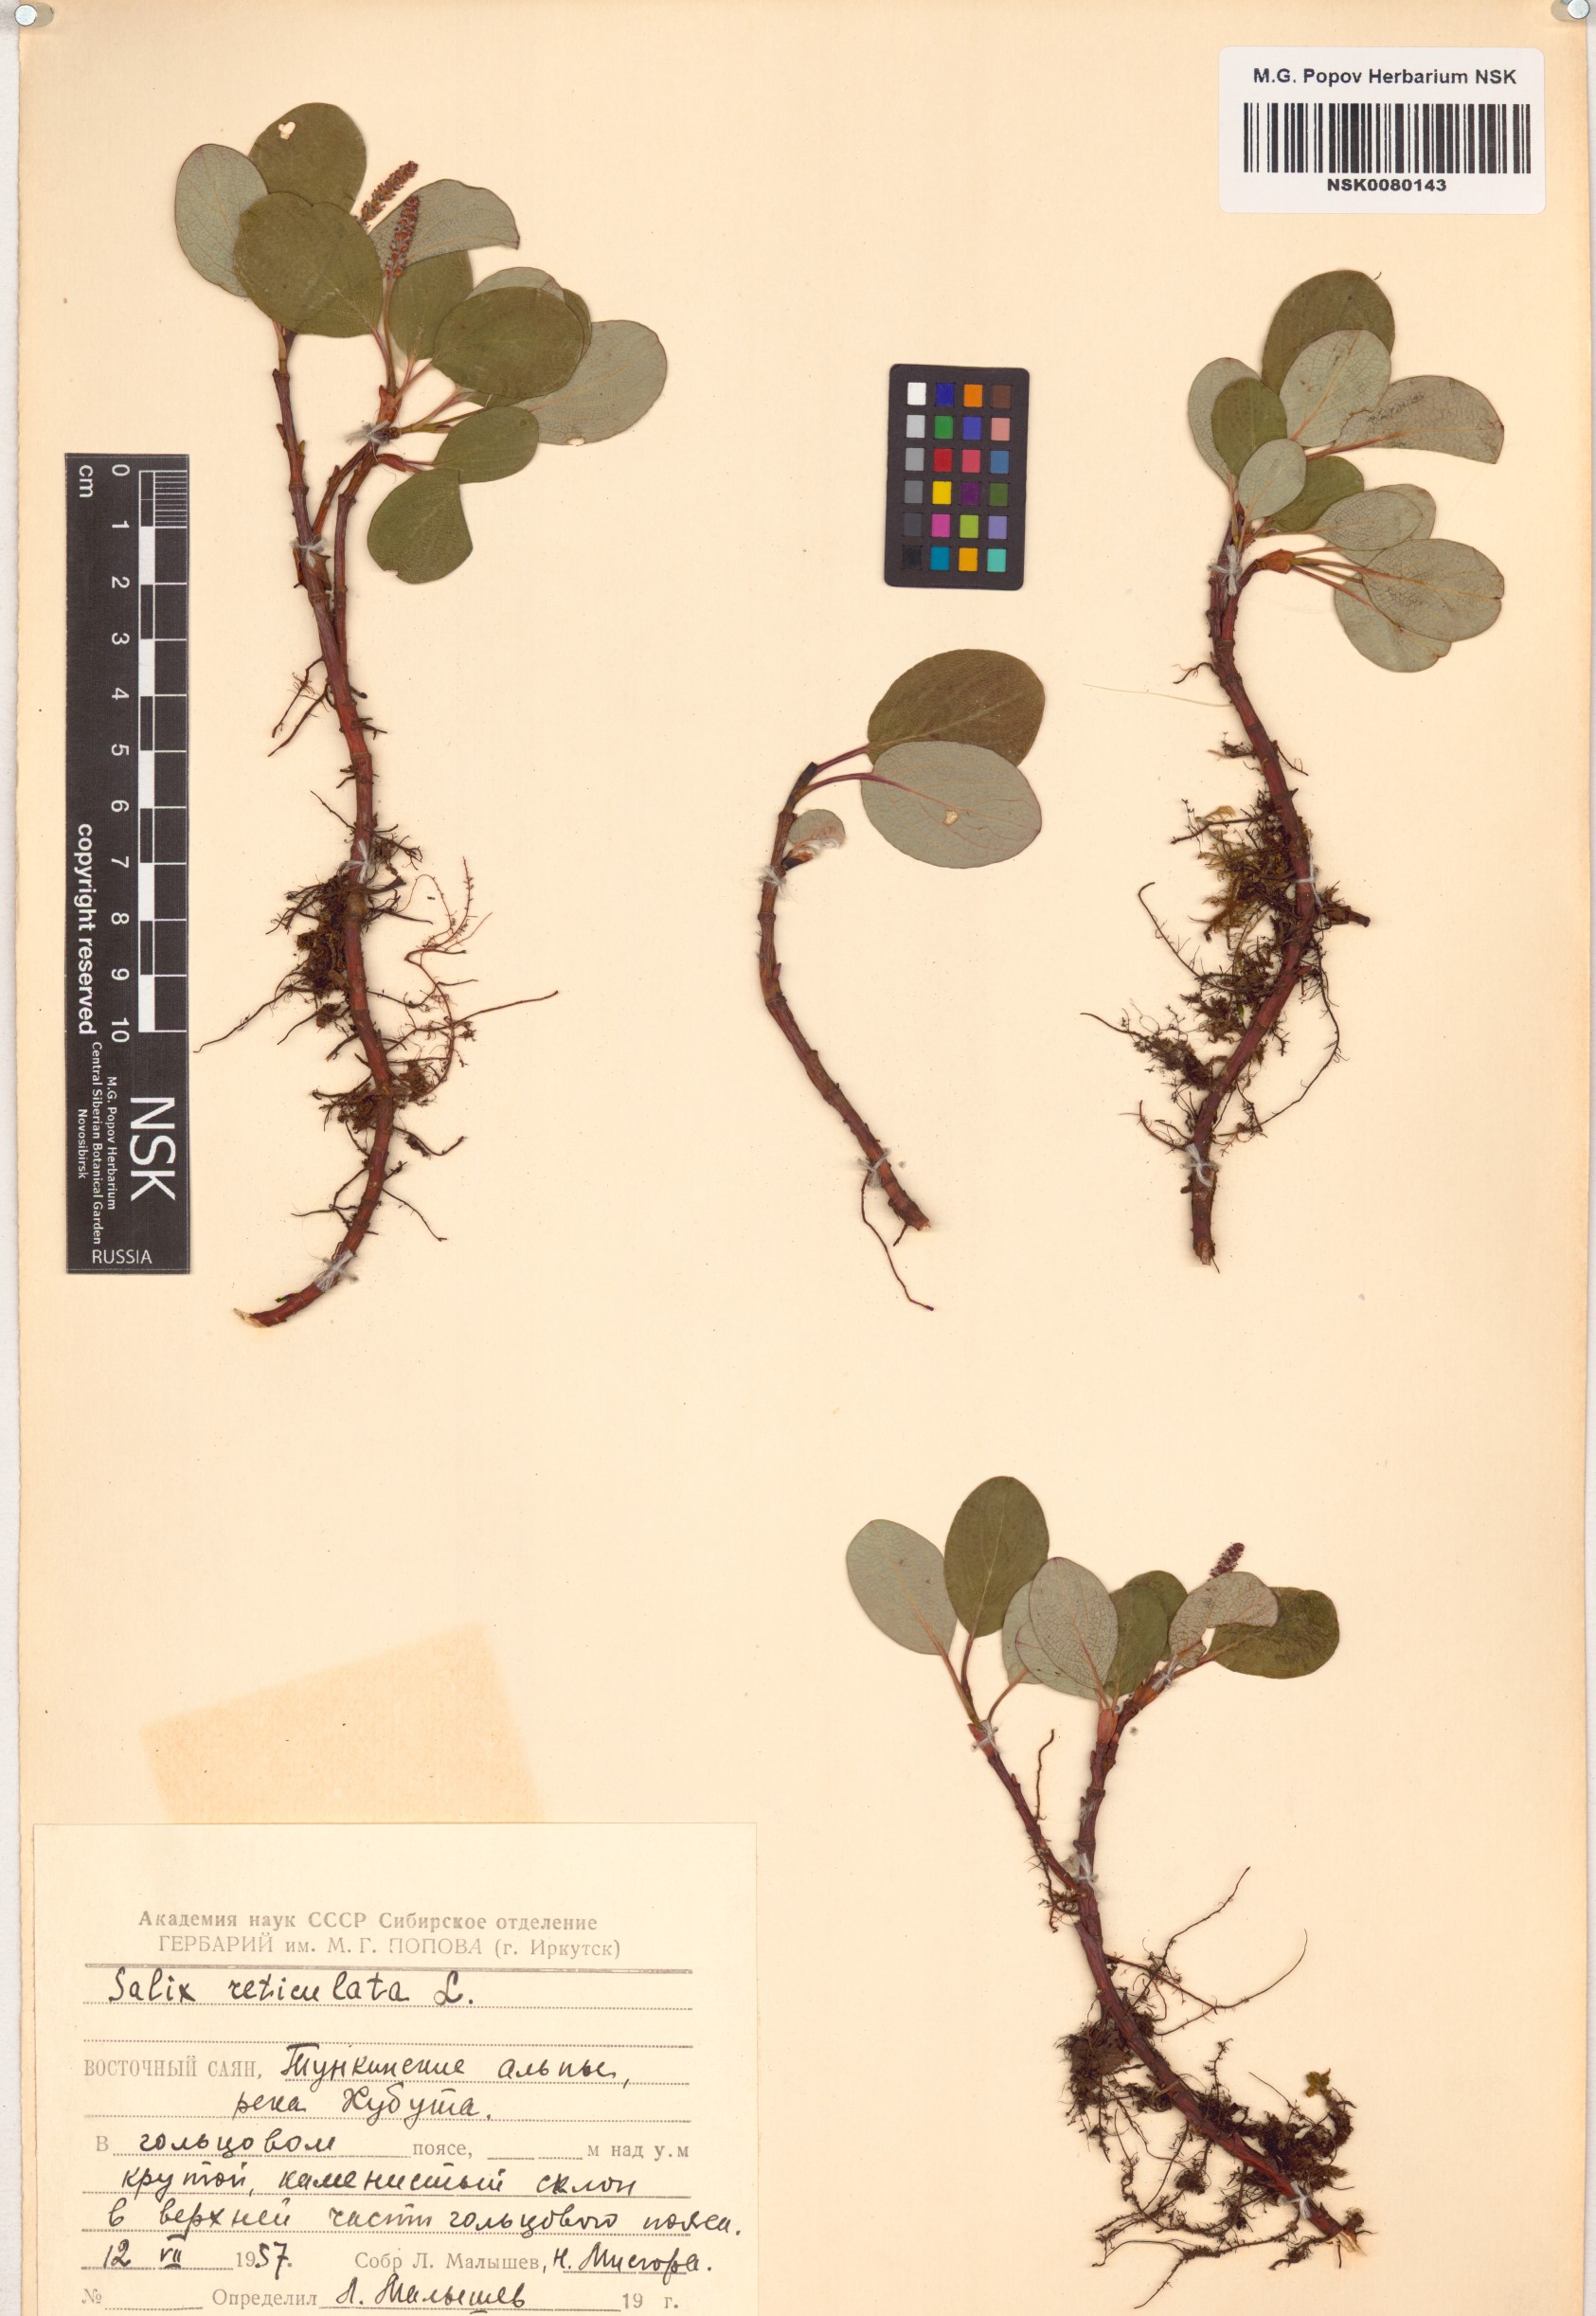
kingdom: Plantae
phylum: Tracheophyta
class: Magnoliopsida
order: Malpighiales
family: Salicaceae
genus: Salix
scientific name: Salix reticulata
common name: Net-leaved willow
